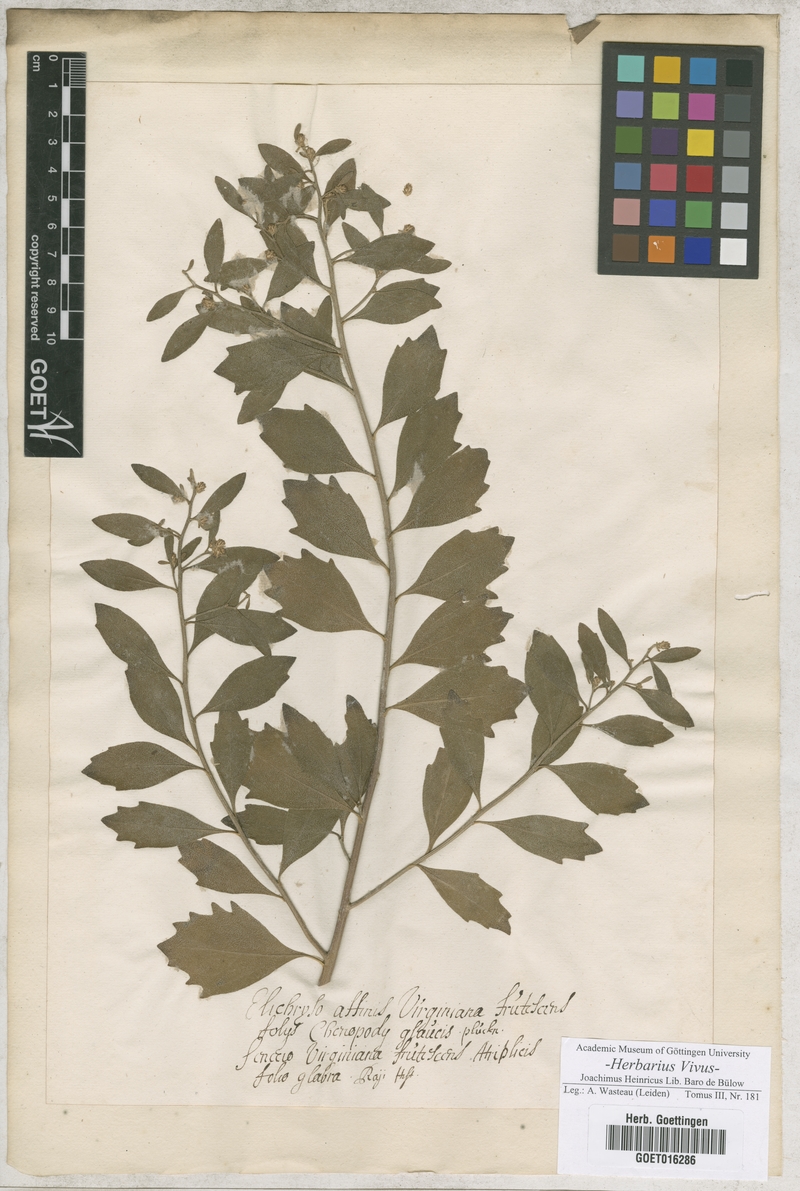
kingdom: Plantae
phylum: Tracheophyta
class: Magnoliopsida
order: Asterales
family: Asteraceae
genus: Baccharis
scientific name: Baccharis halimifolia
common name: Eastern baccharis
